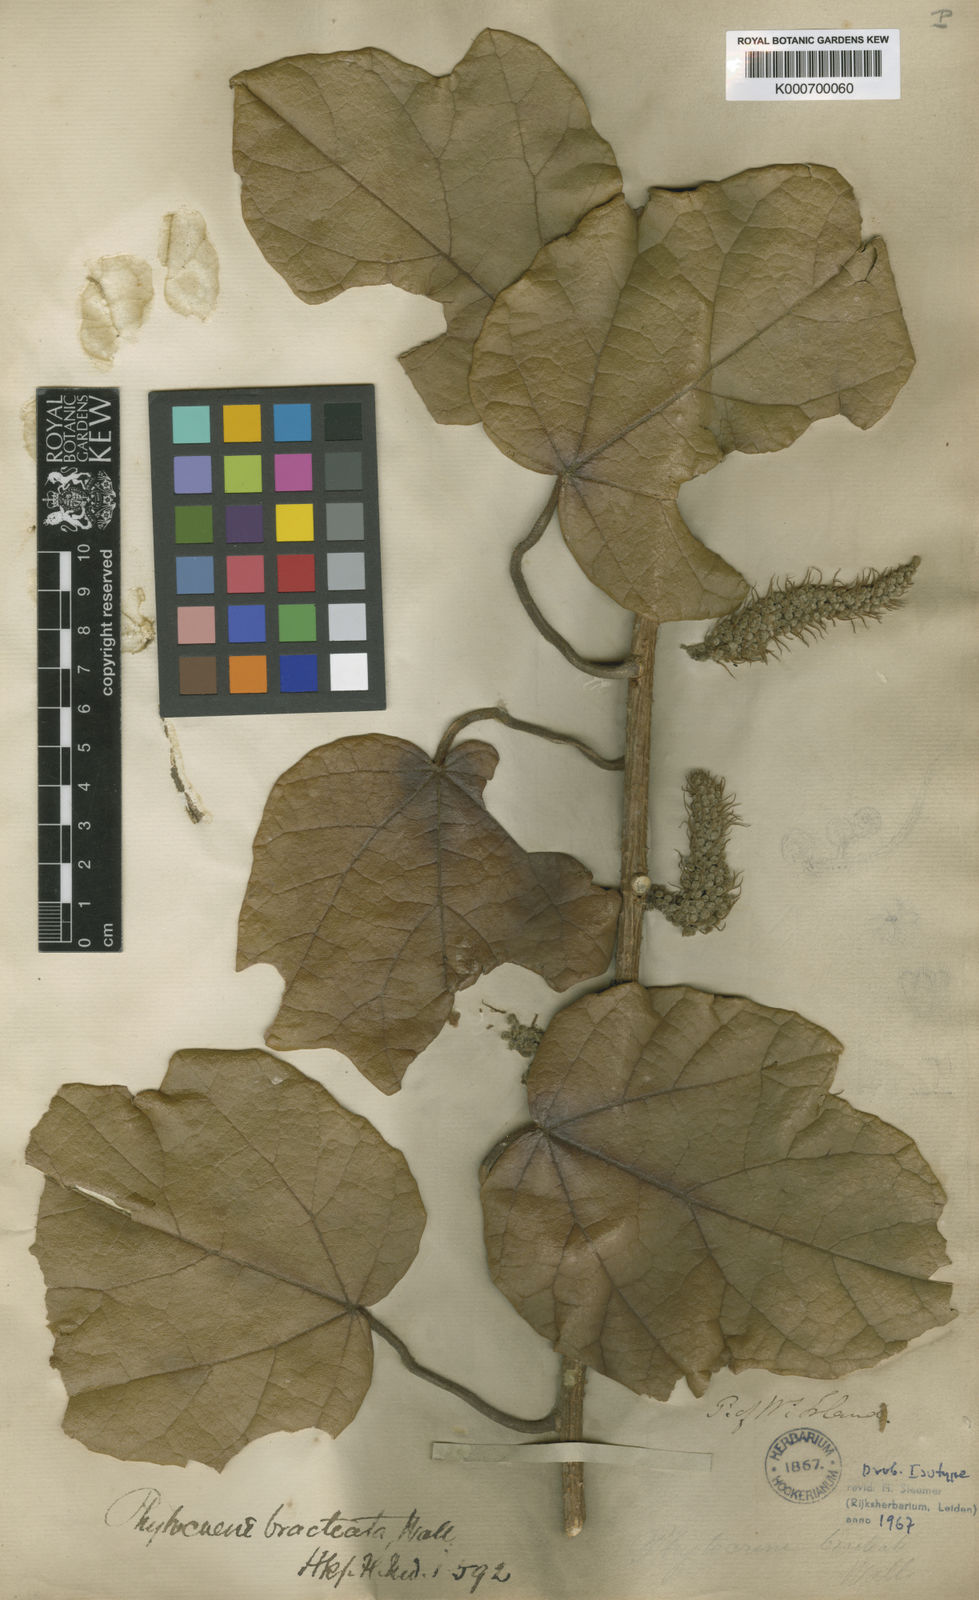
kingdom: Plantae
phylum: Tracheophyta
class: Magnoliopsida
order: Icacinales
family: Icacinaceae
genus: Phytocrene
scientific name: Phytocrene bracteata
